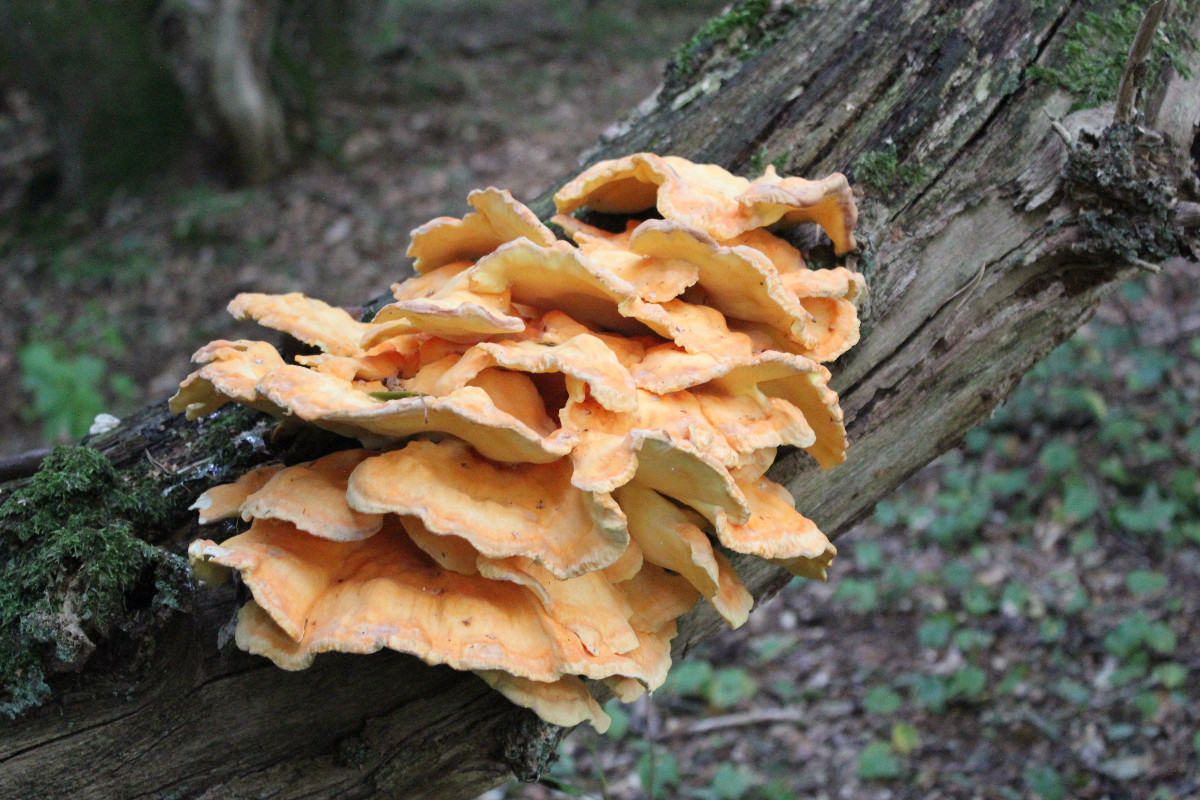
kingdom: Fungi
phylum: Basidiomycota
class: Agaricomycetes
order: Polyporales
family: Laetiporaceae
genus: Laetiporus
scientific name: Laetiporus sulphureus
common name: svovlporesvamp
